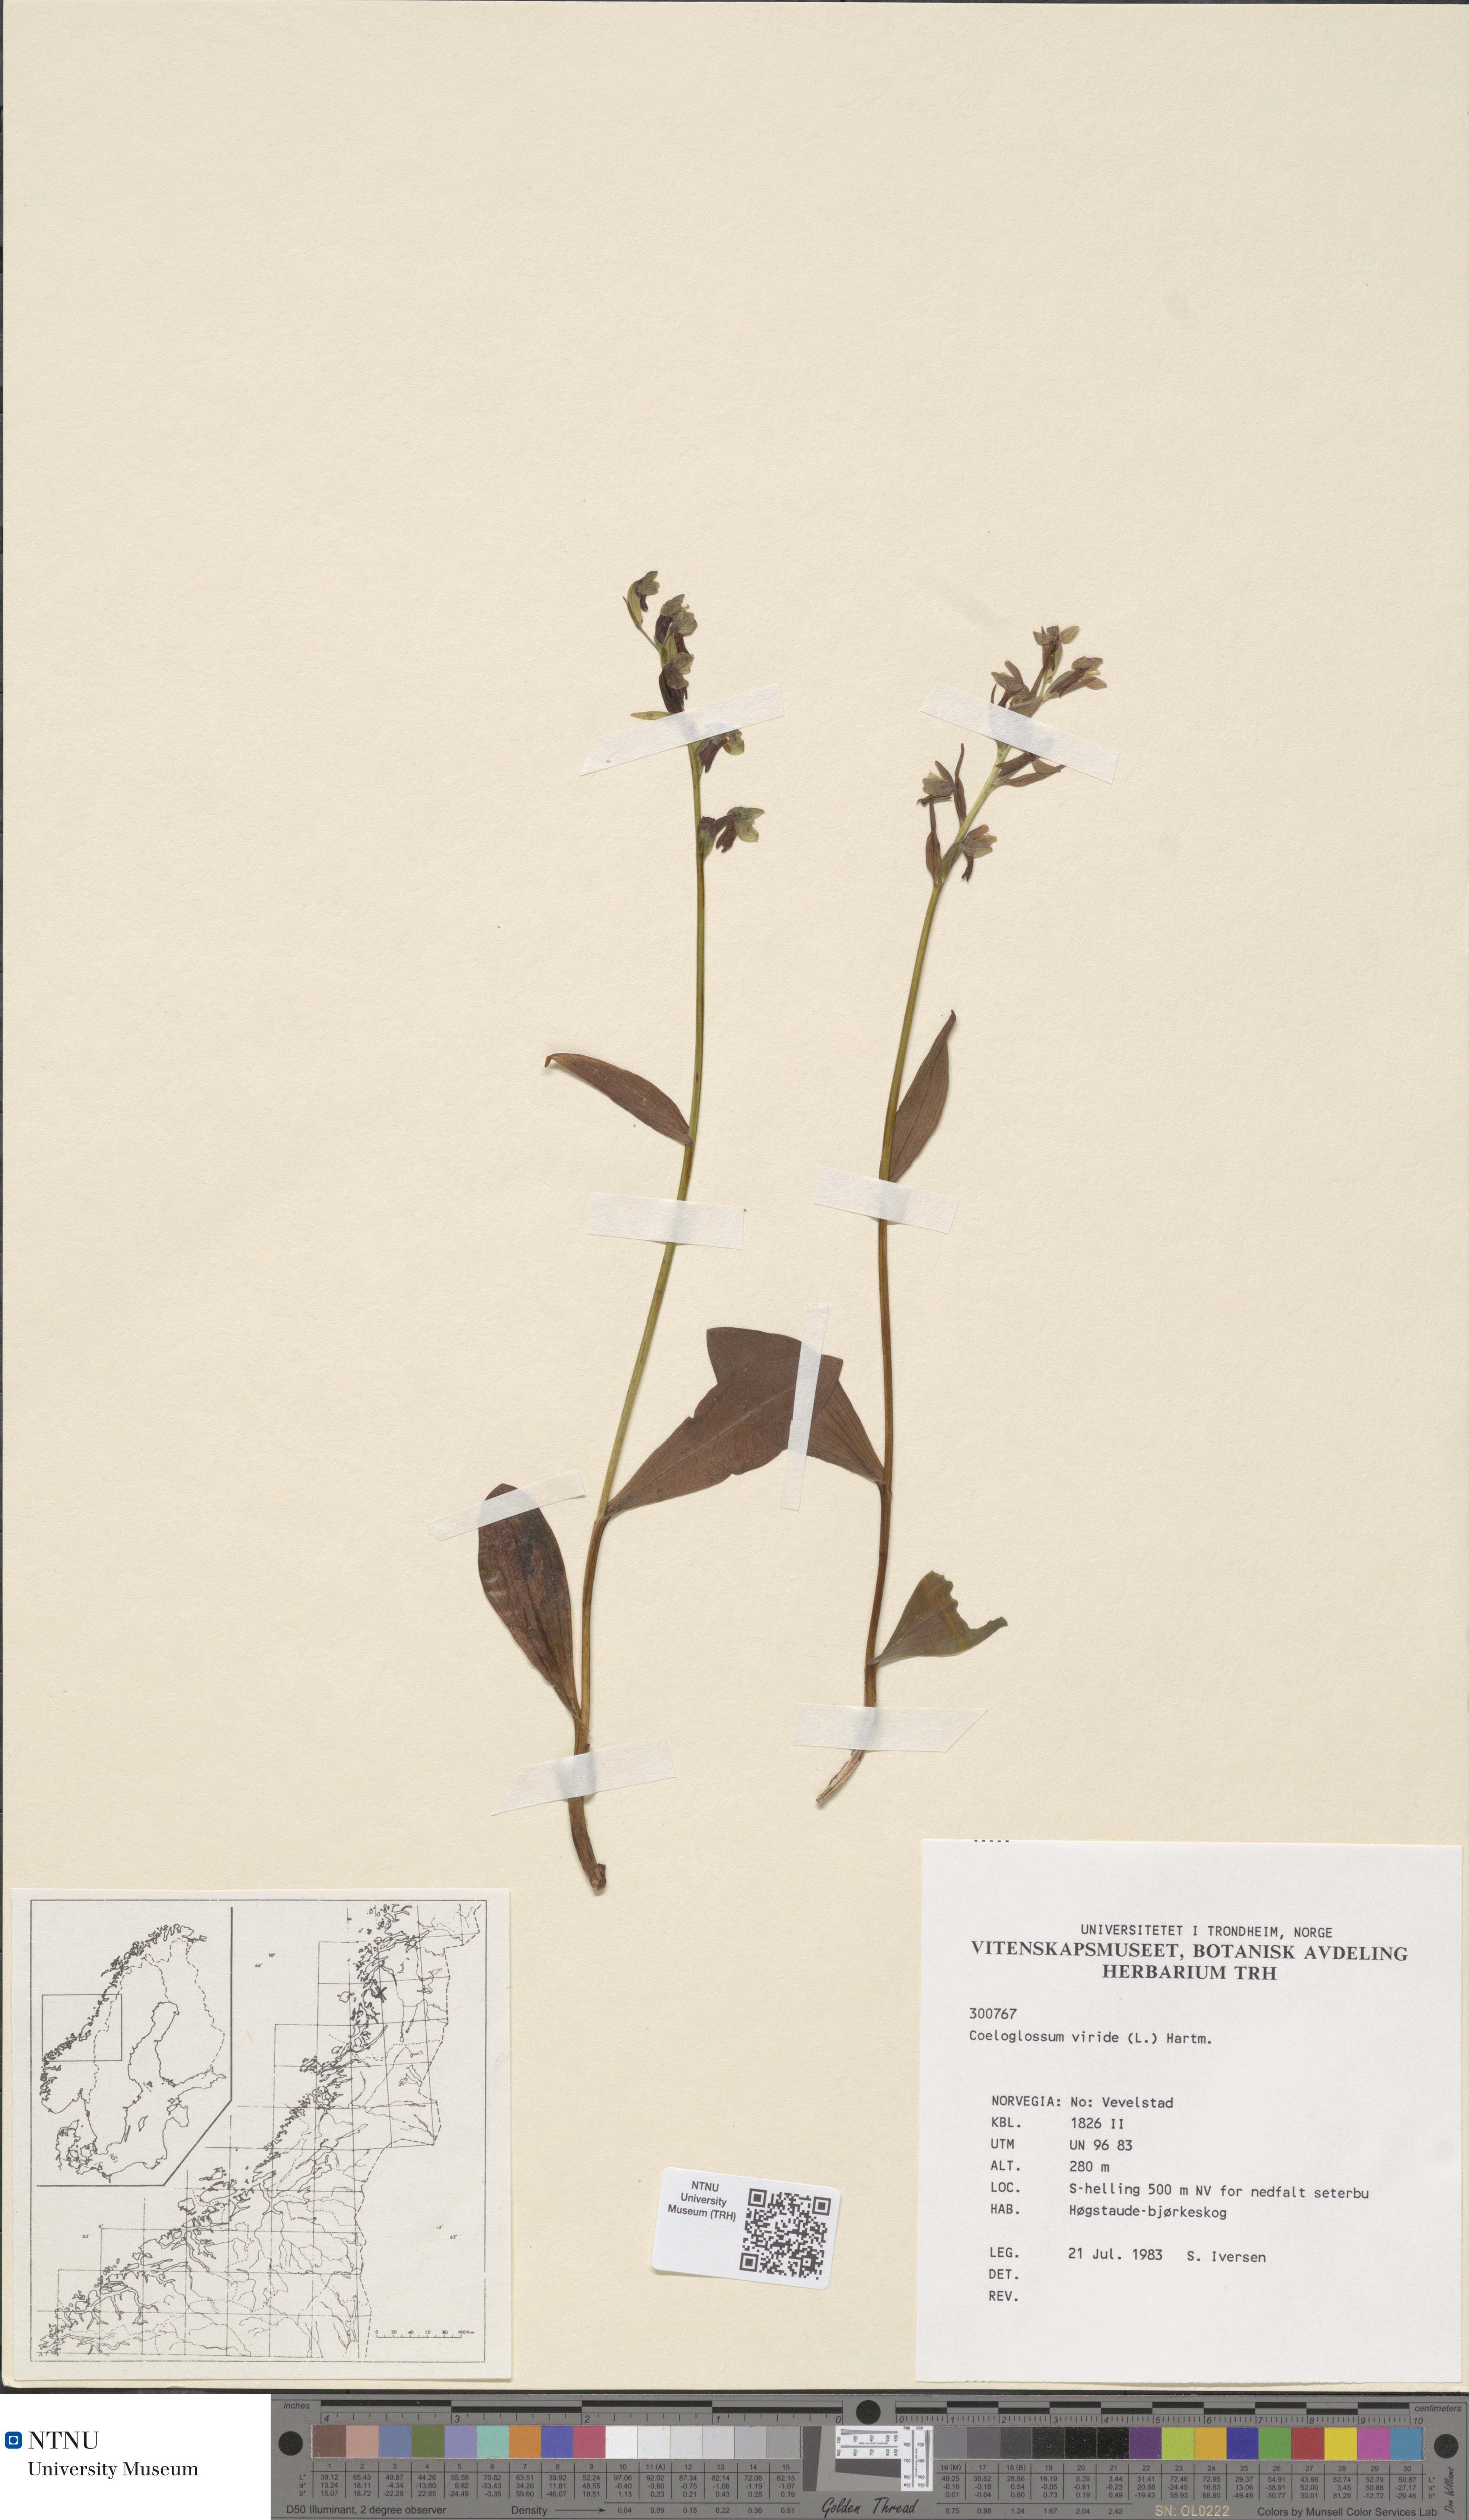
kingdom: Plantae
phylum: Tracheophyta
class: Liliopsida
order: Asparagales
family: Orchidaceae
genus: Dactylorhiza
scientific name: Dactylorhiza viridis
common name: Longbract frog orchid
